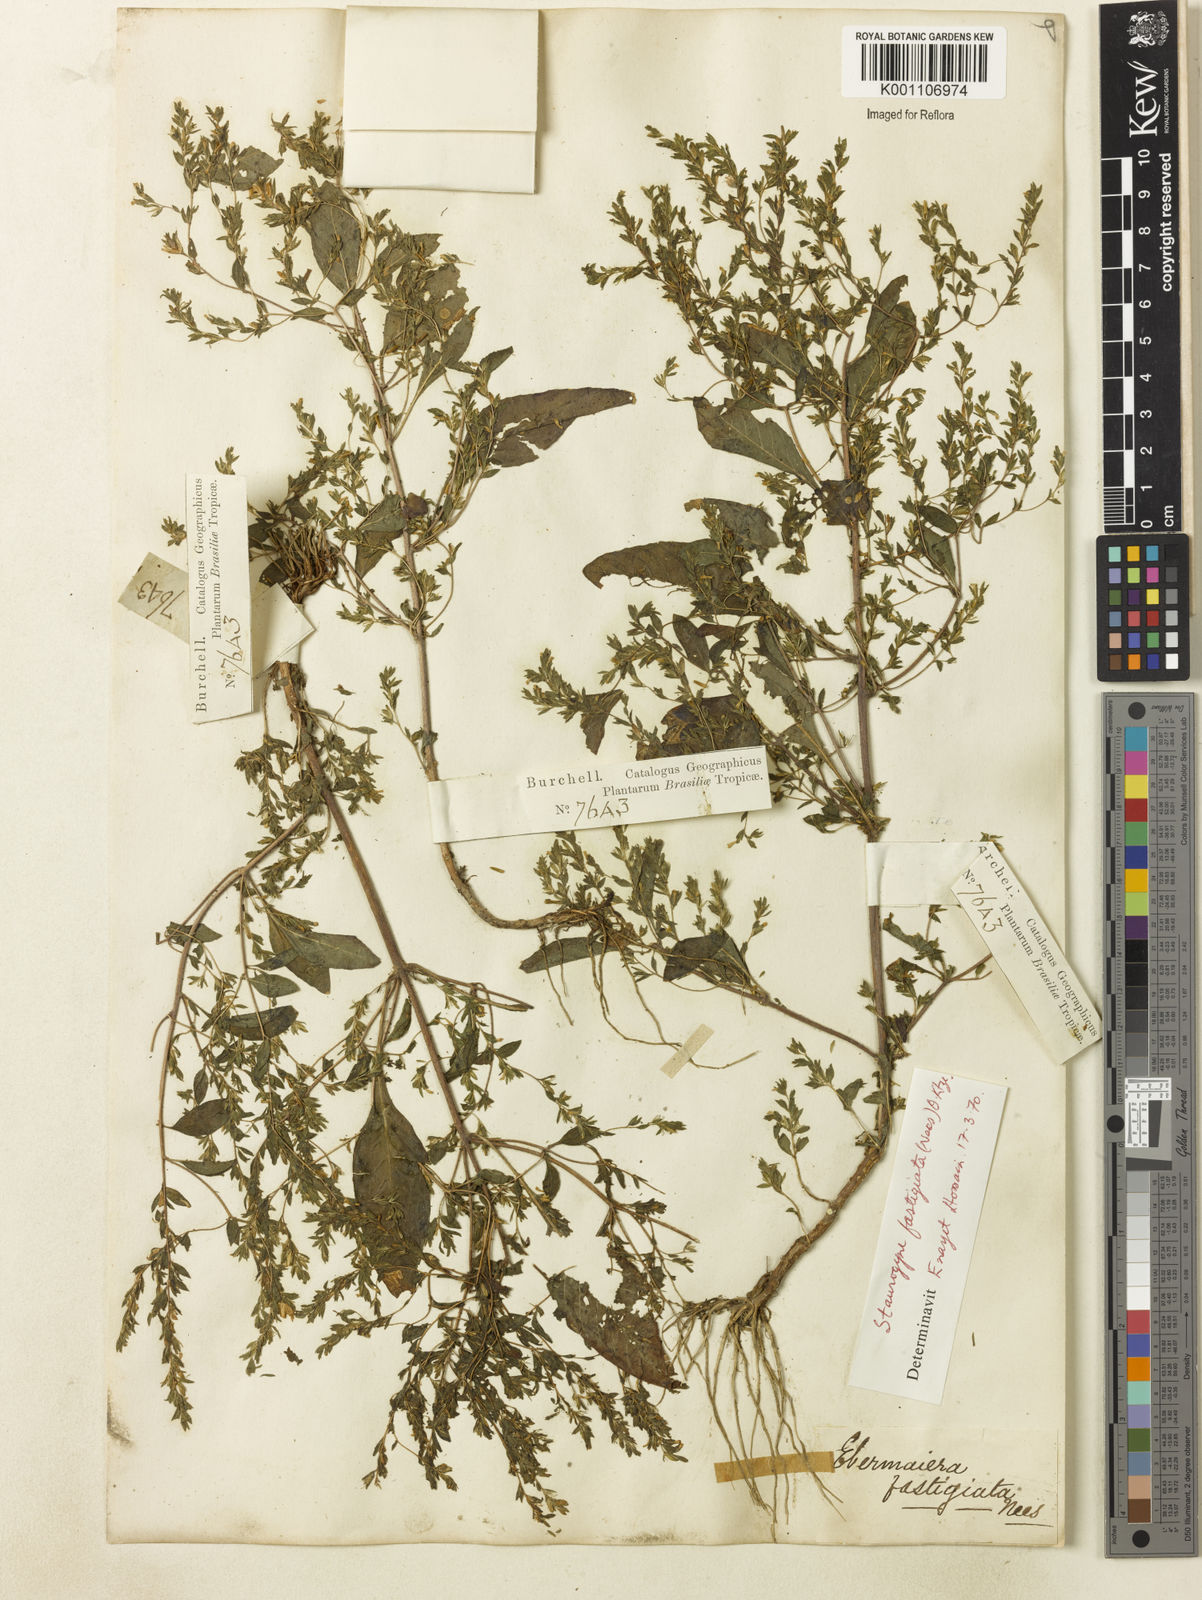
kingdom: Plantae
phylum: Tracheophyta
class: Magnoliopsida
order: Lamiales
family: Acanthaceae
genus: Staurogyne
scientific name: Staurogyne fastigiata
